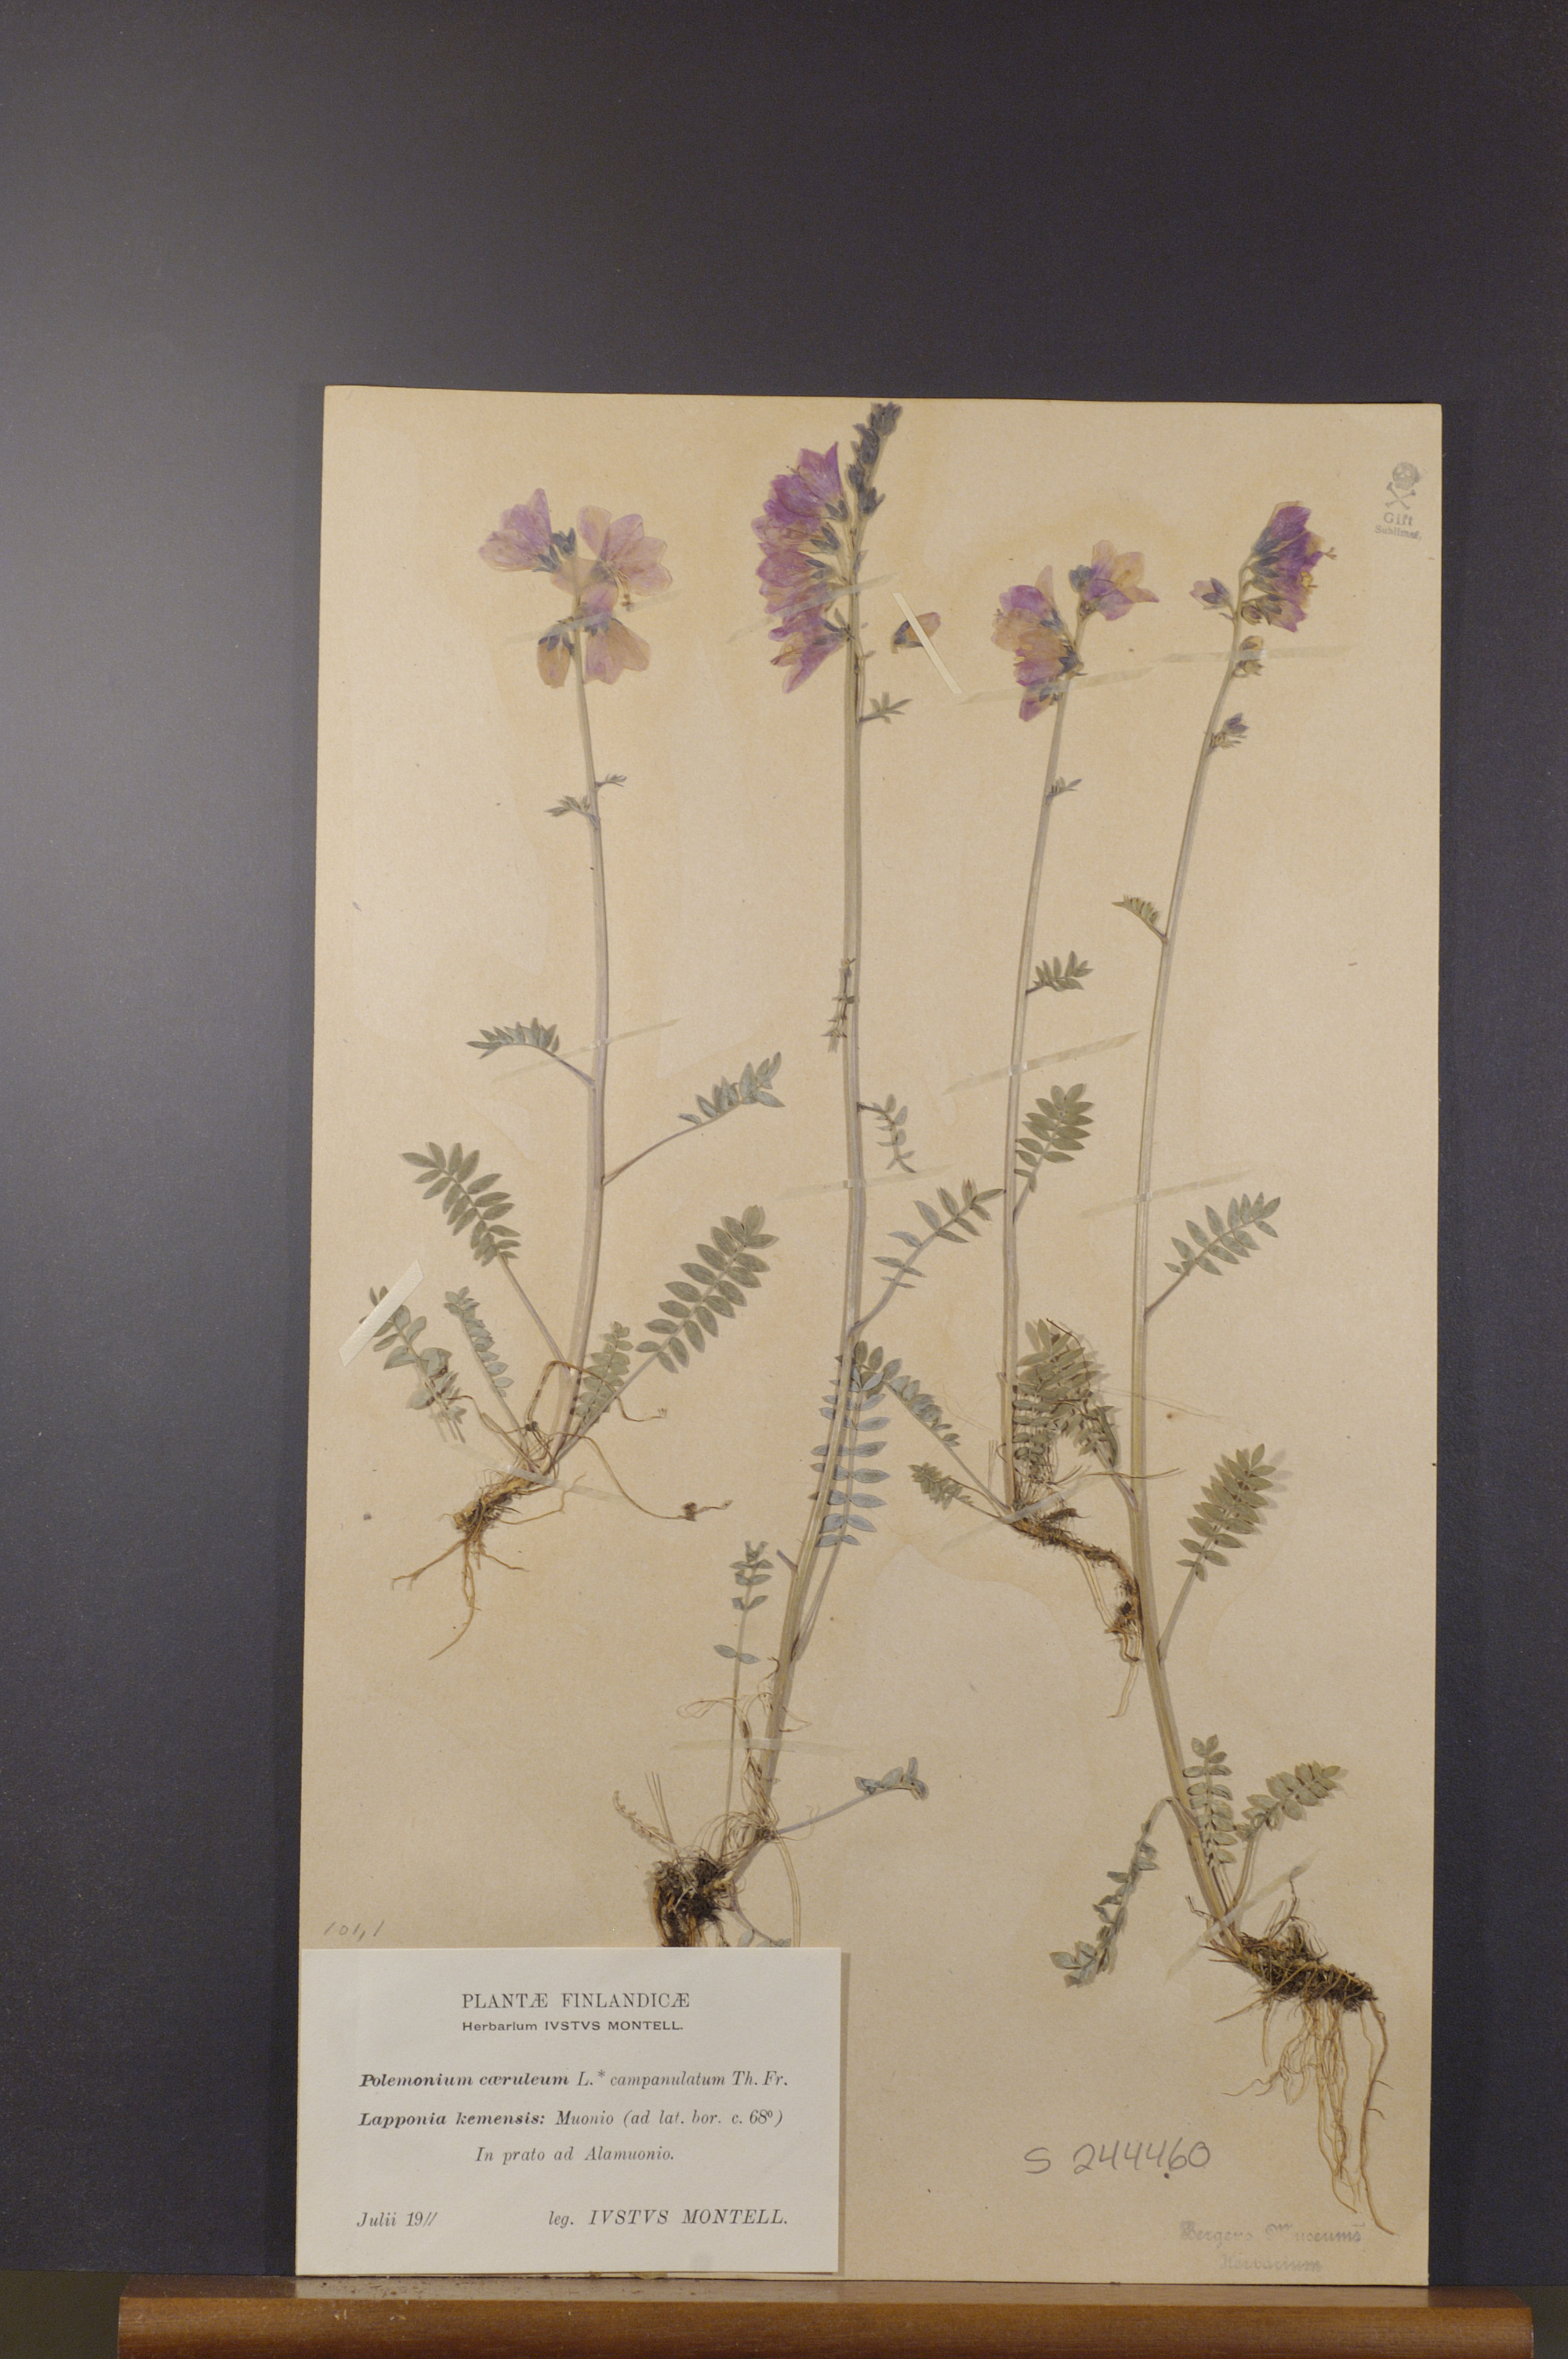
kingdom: Plantae
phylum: Tracheophyta
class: Magnoliopsida
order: Ericales
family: Polemoniaceae
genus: Polemonium
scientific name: Polemonium villosum
